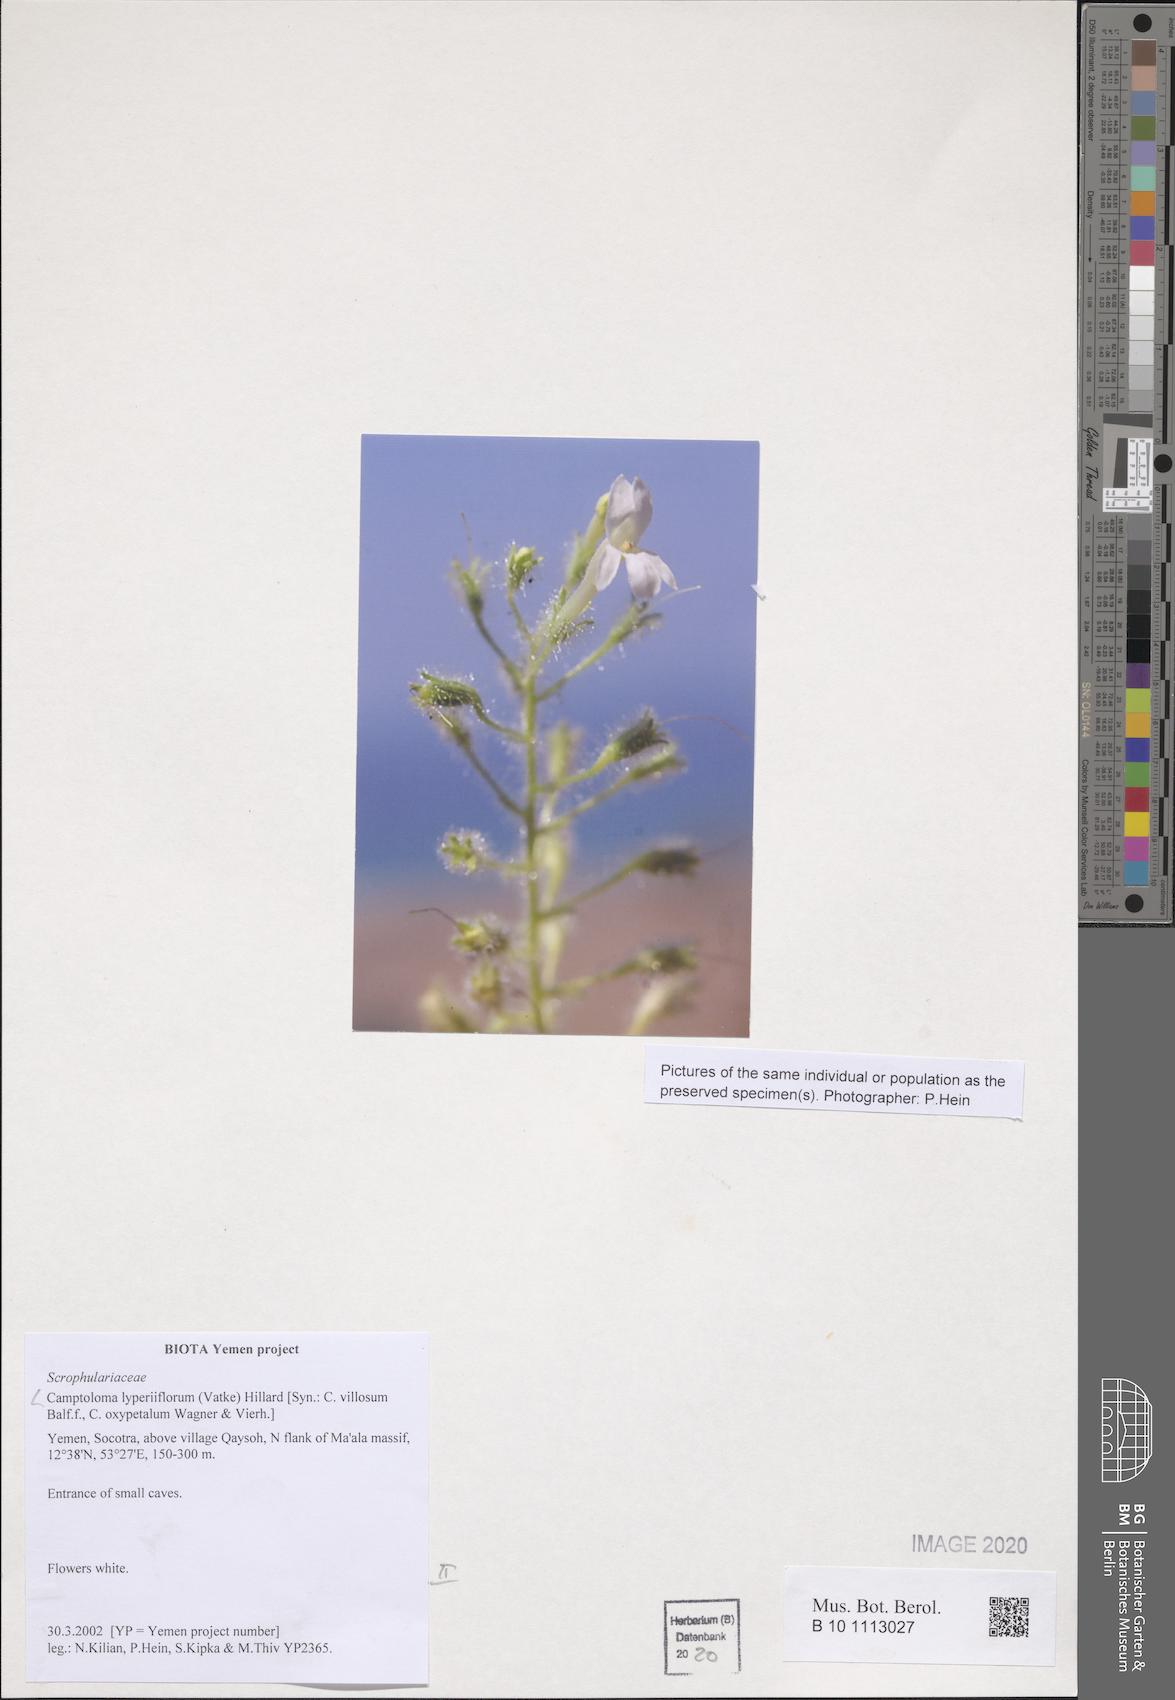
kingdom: Plantae
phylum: Tracheophyta
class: Magnoliopsida
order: Lamiales
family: Scrophulariaceae
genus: Camptoloma
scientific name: Camptoloma lyperiiflorum
